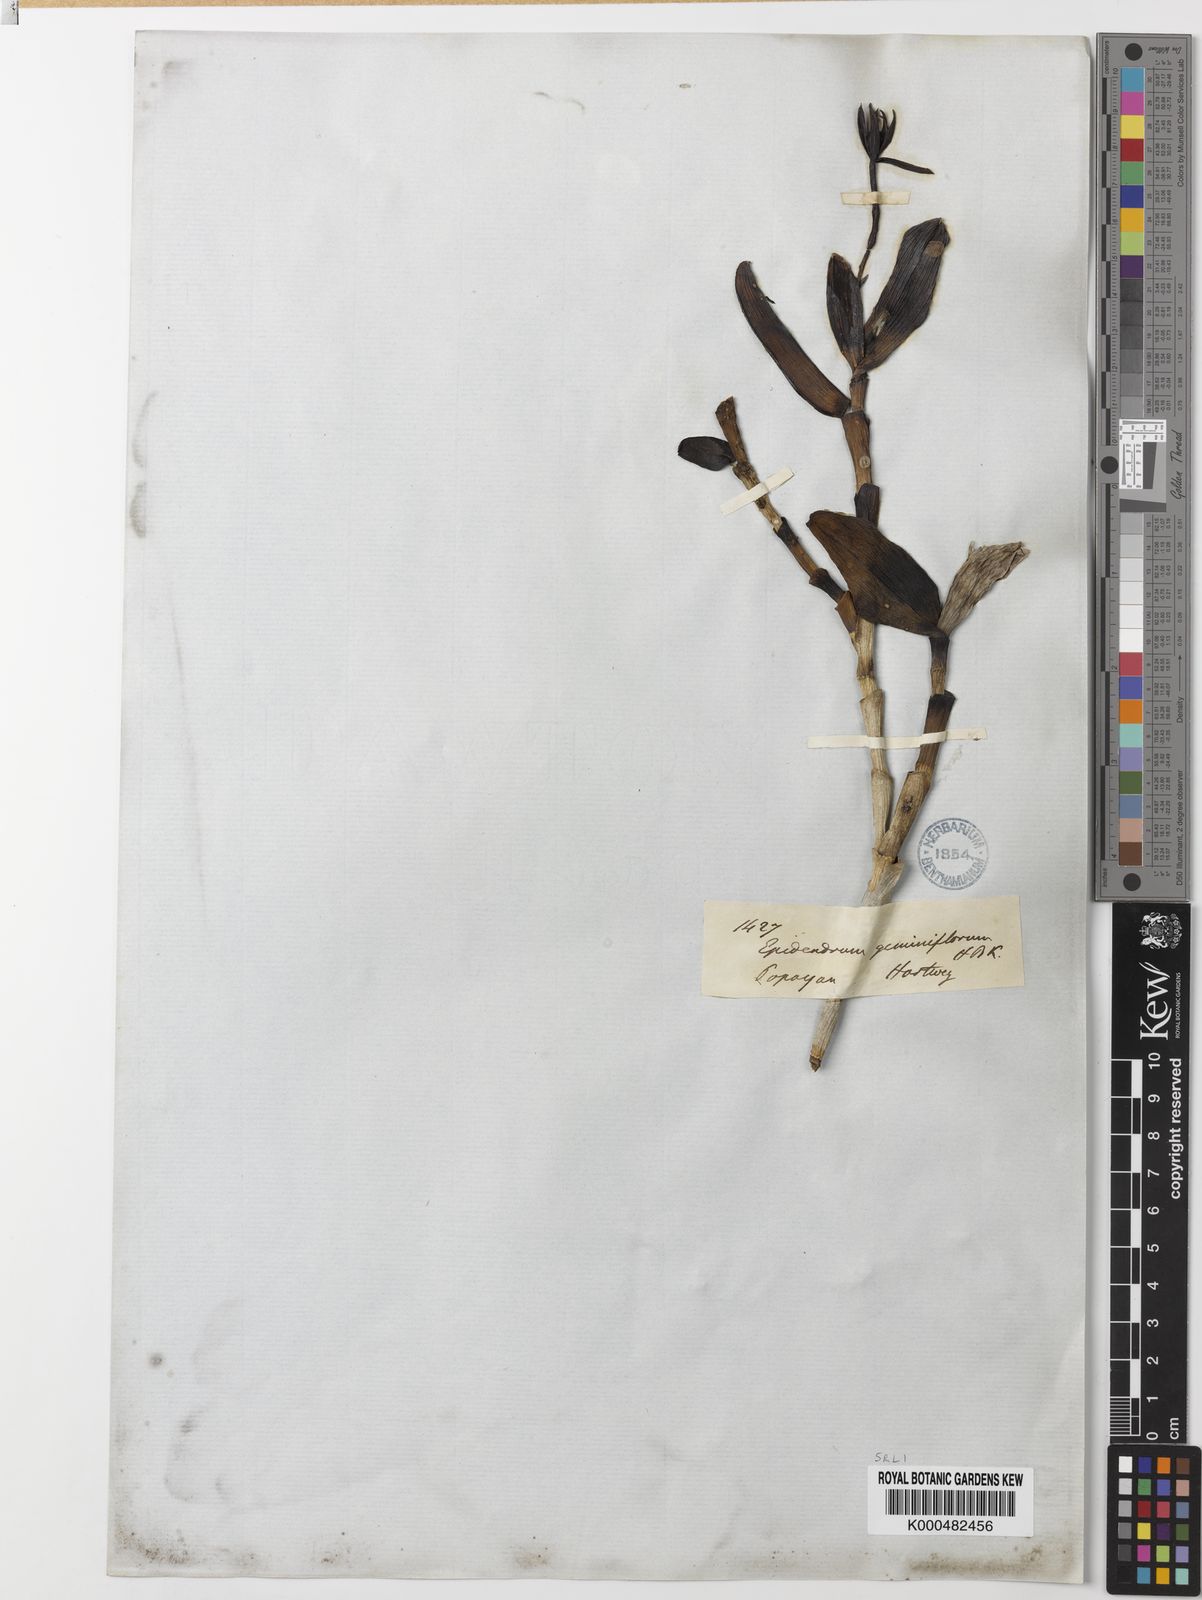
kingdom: Plantae
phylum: Tracheophyta
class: Liliopsida
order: Asparagales
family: Orchidaceae
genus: Epidendrum
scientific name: Epidendrum geminiflorum
